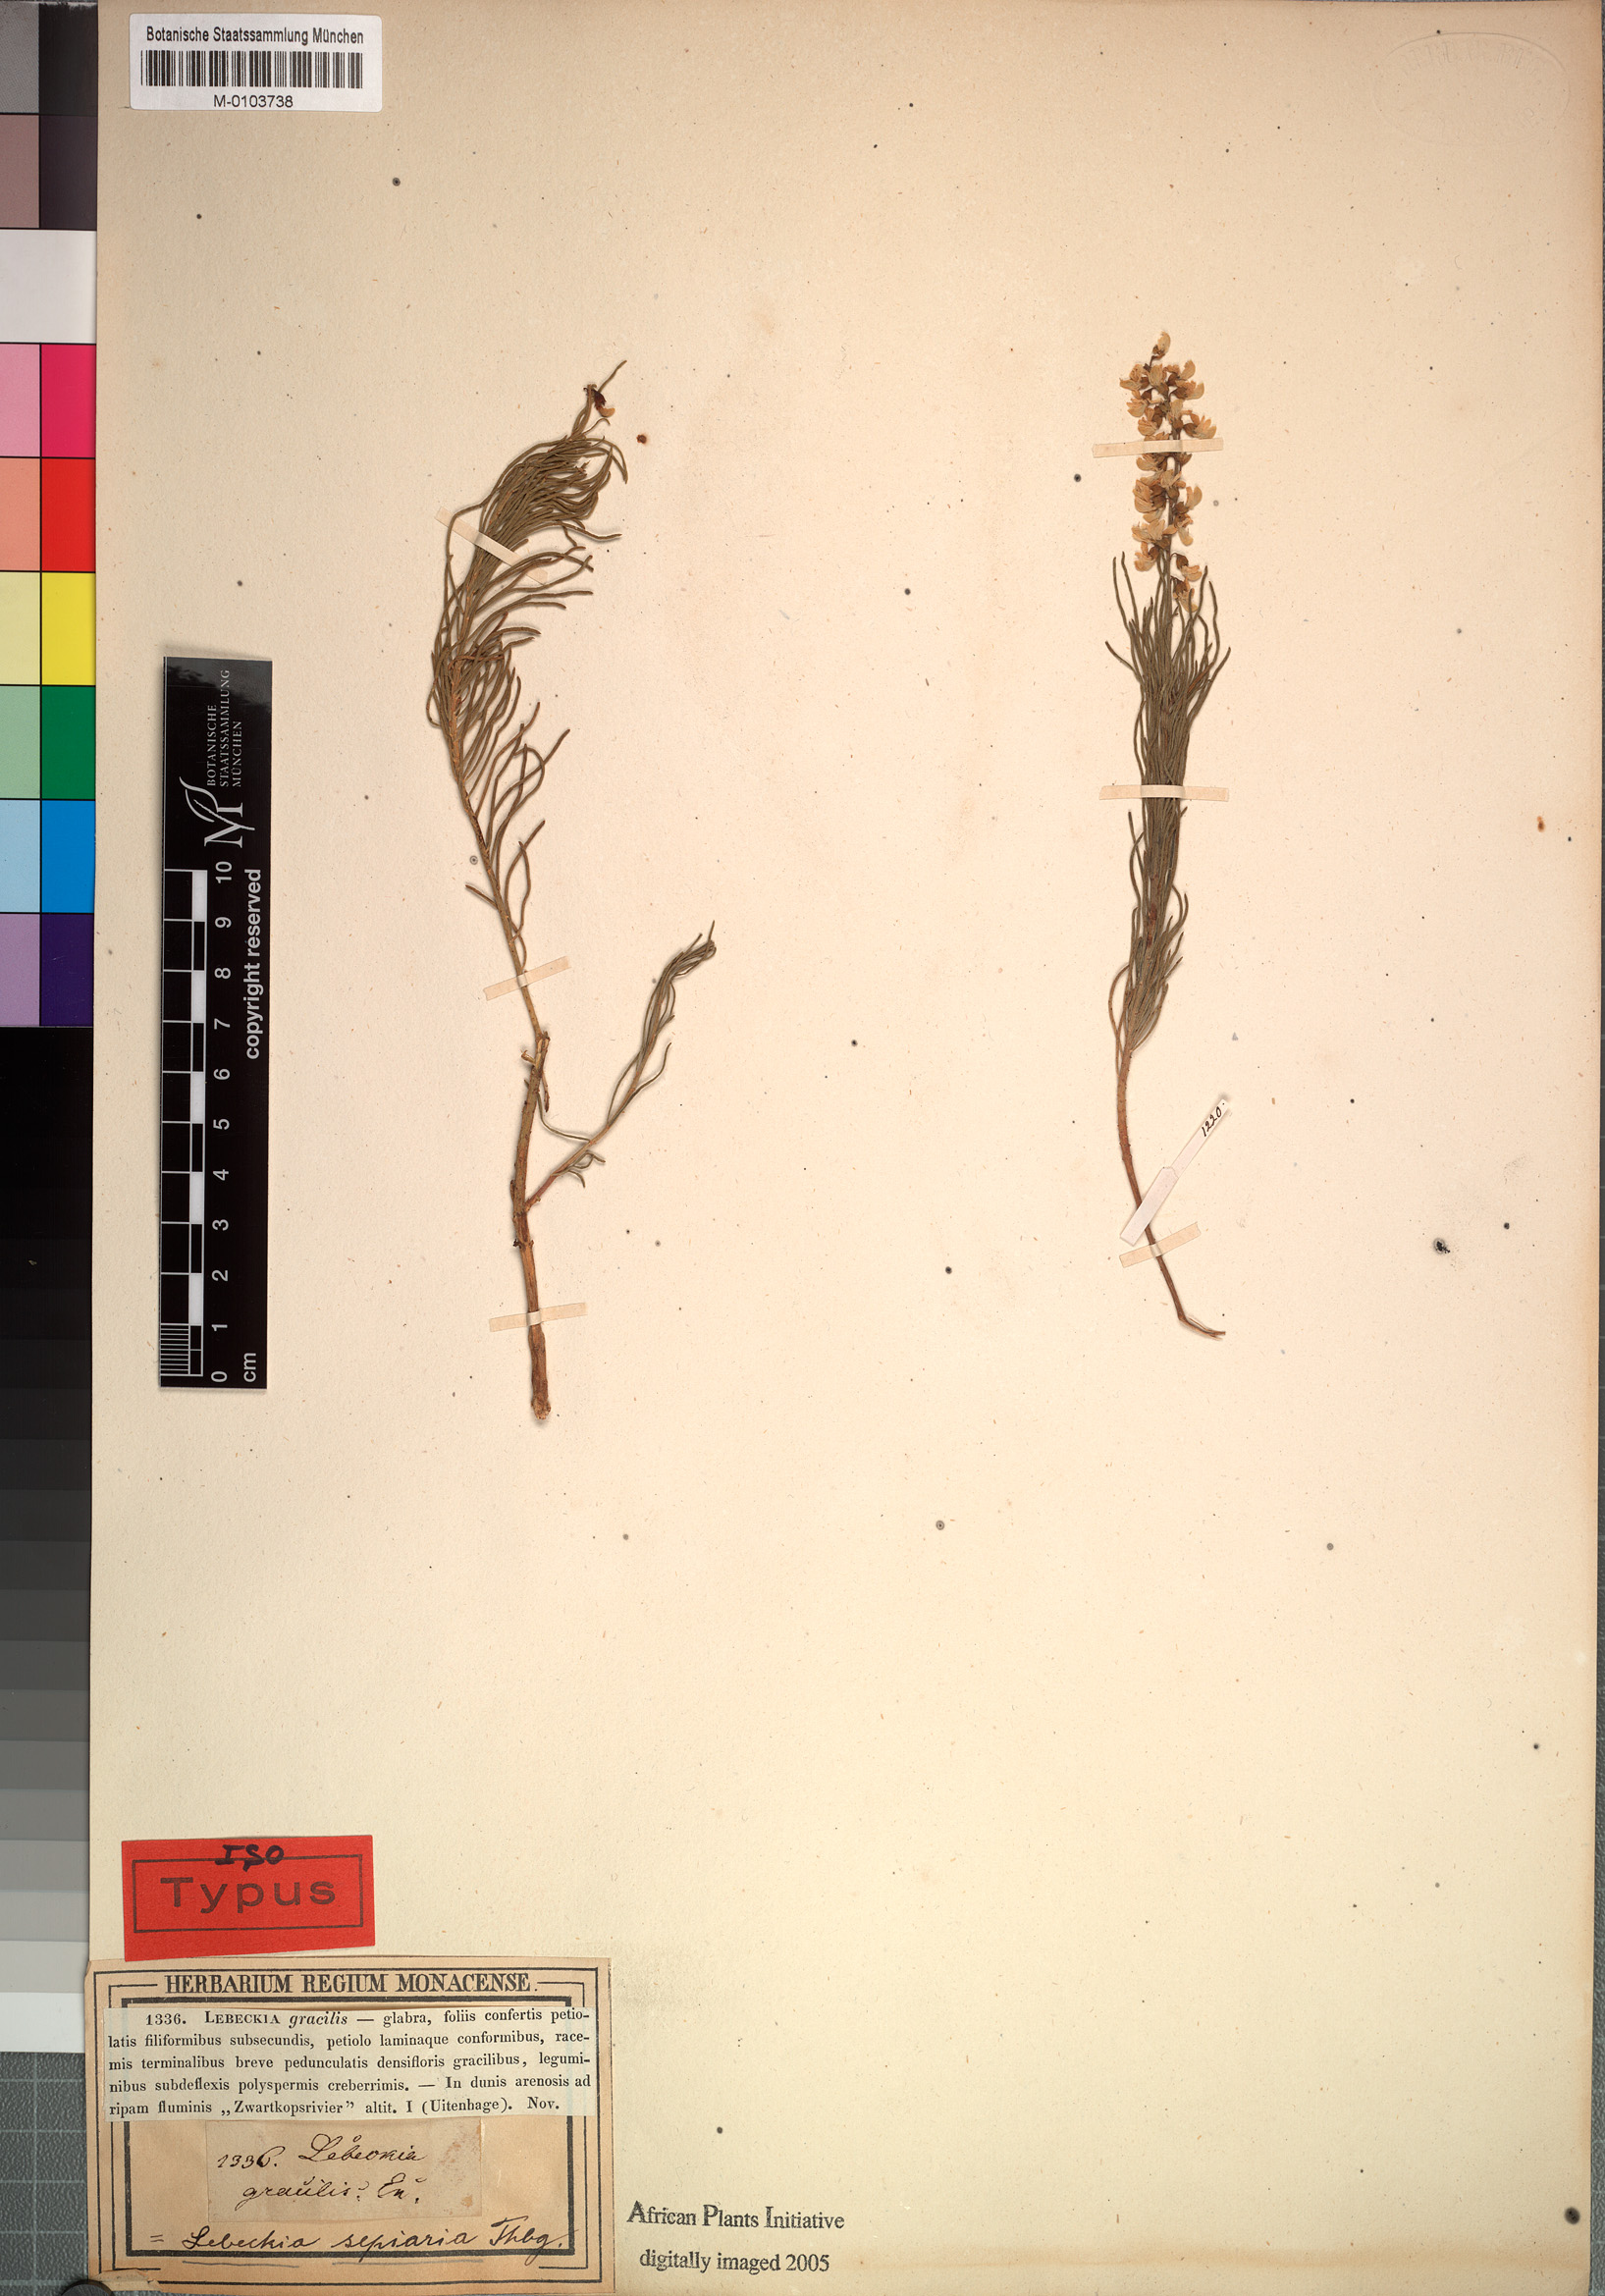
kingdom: Plantae
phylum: Tracheophyta
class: Magnoliopsida
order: Fabales
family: Fabaceae
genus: Lebeckia
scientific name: Lebeckia sepiaria
